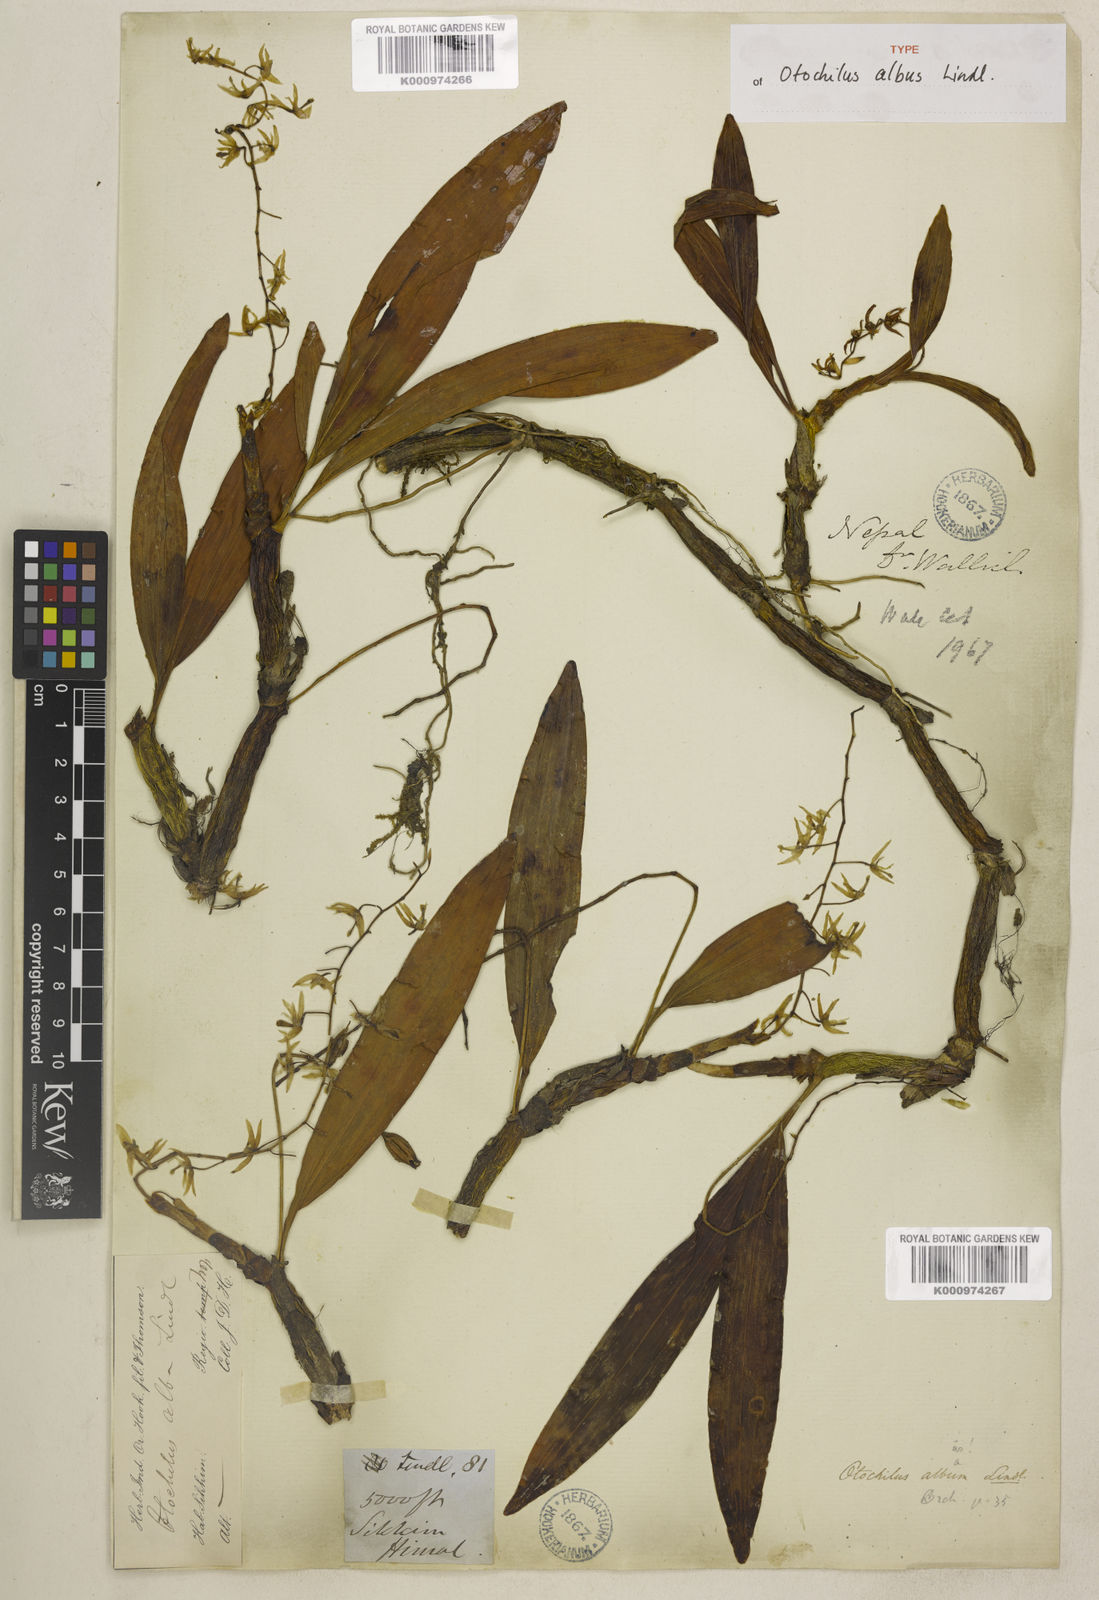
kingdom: Plantae
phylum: Tracheophyta
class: Liliopsida
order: Asparagales
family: Orchidaceae
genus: Coelogyne
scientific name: Coelogyne alba
